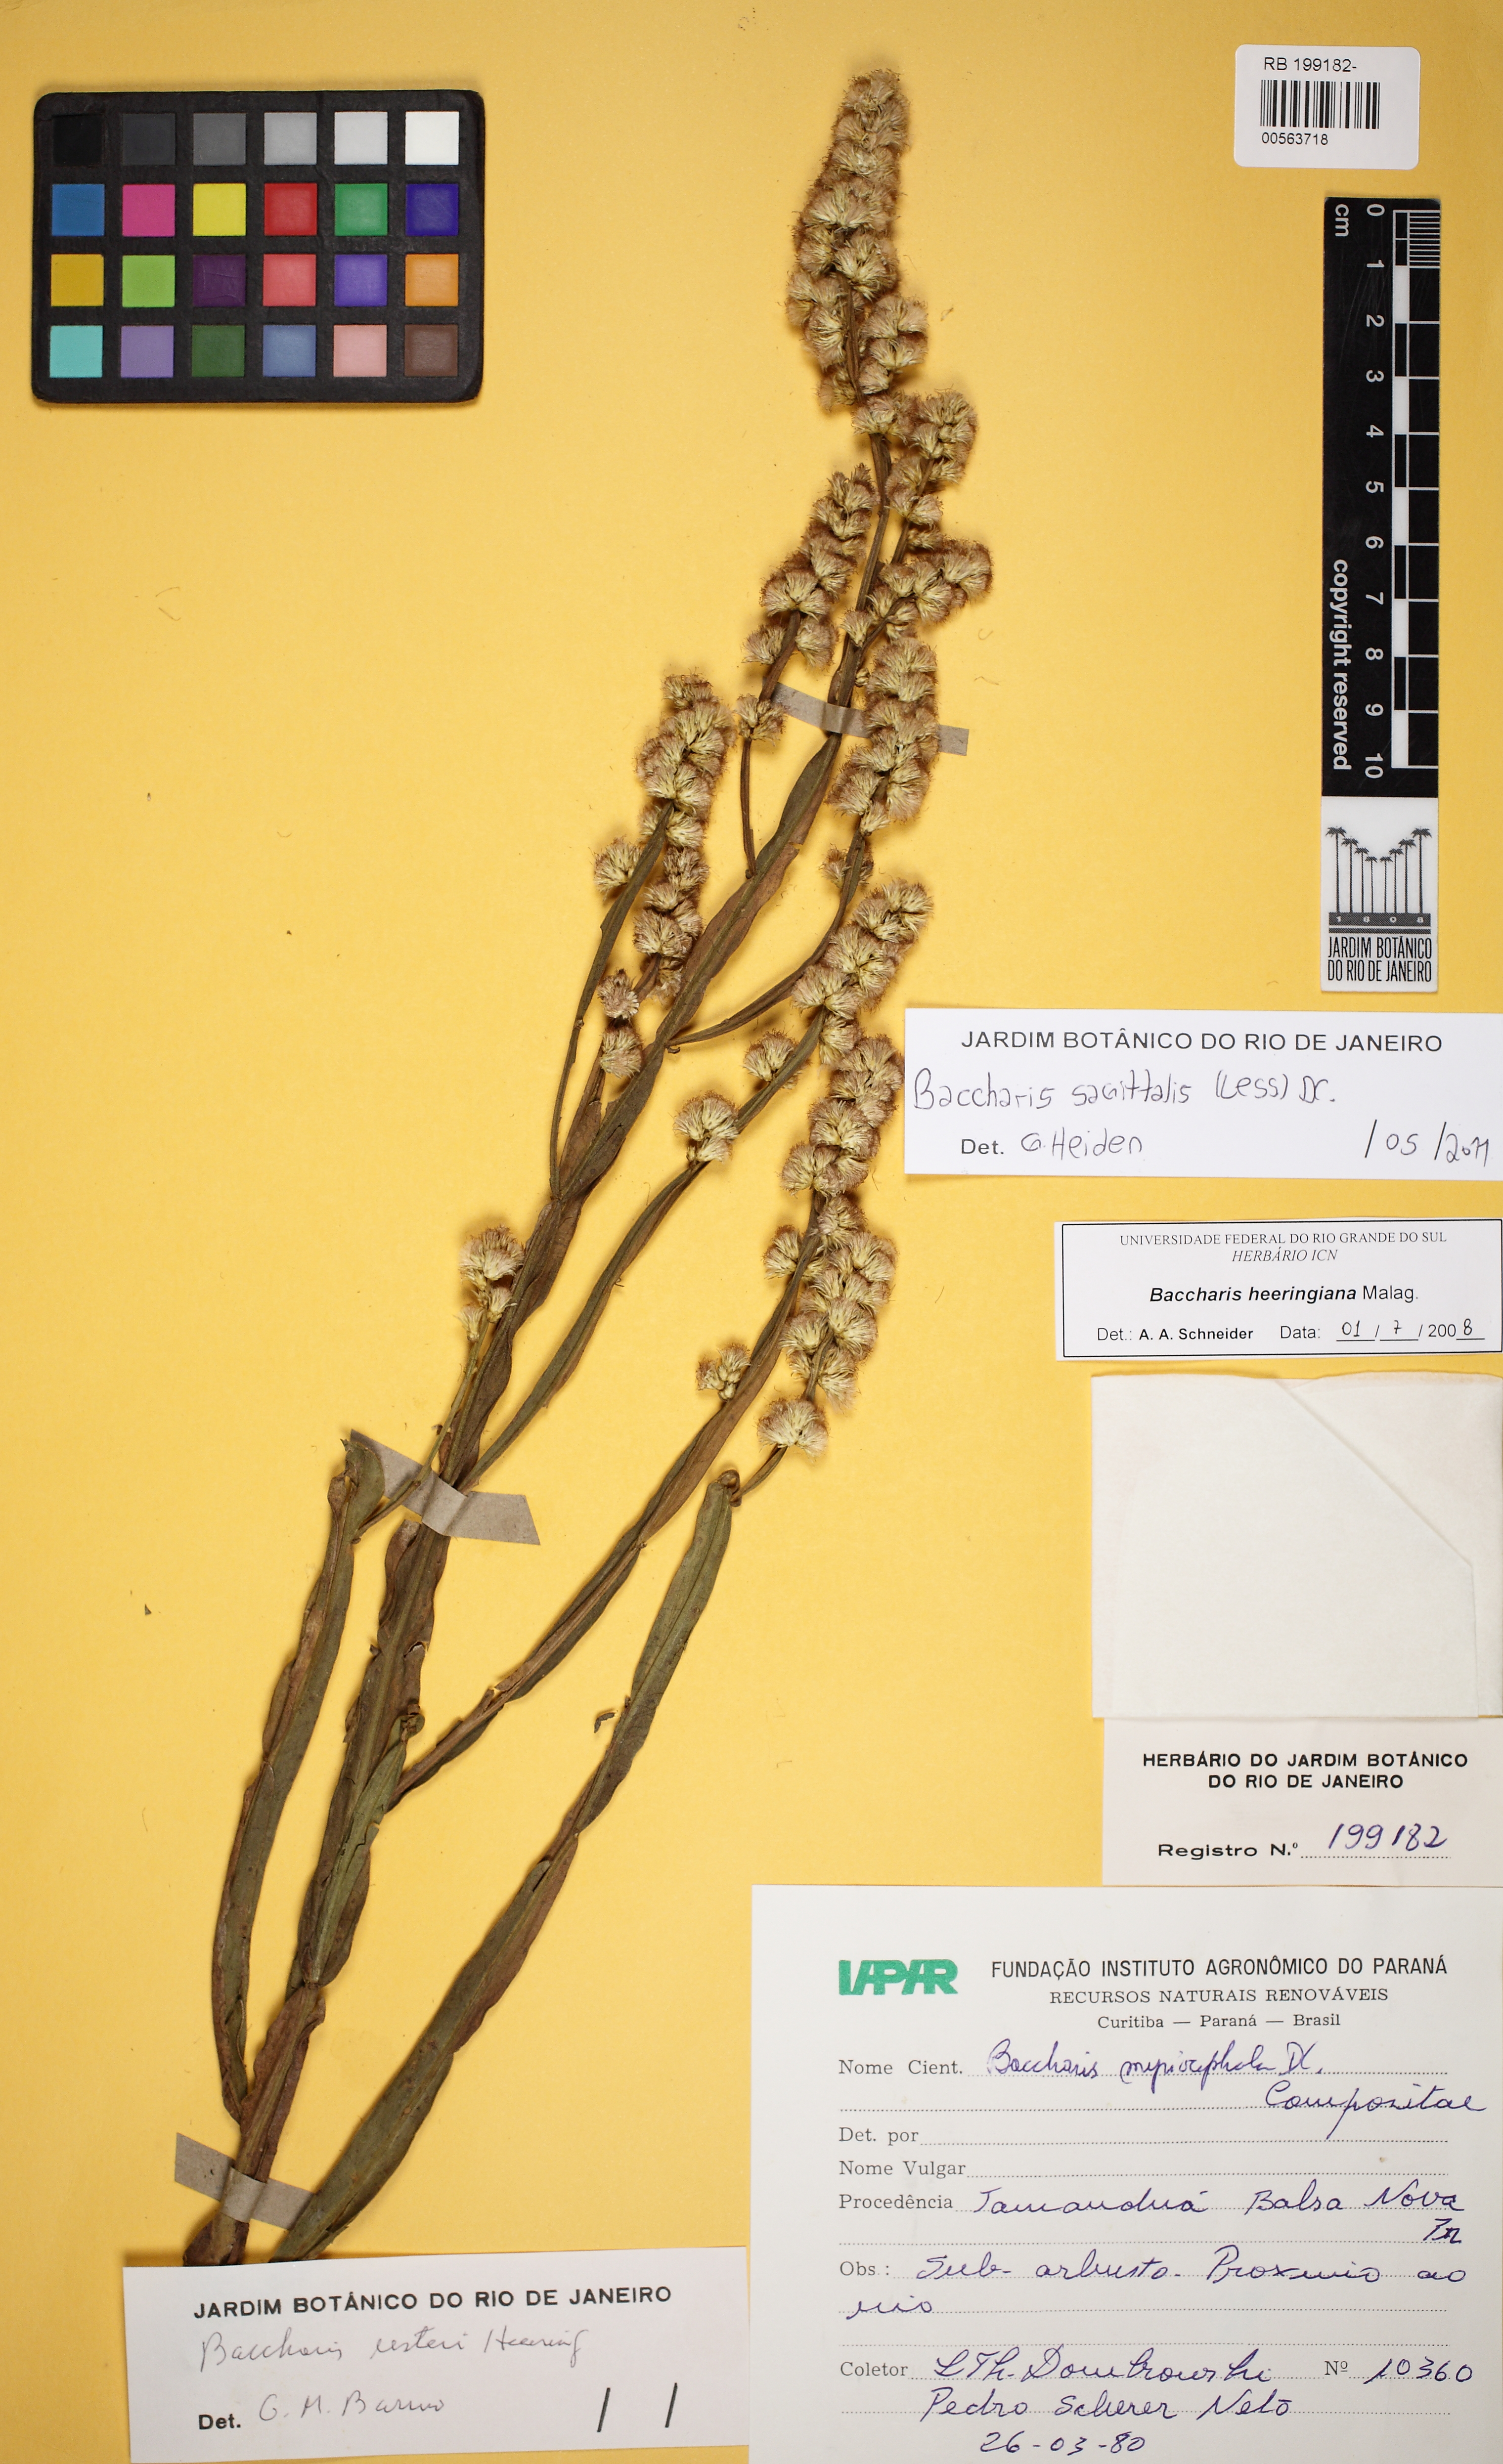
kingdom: Plantae
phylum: Tracheophyta
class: Magnoliopsida
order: Asterales
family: Asteraceae
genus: Baccharis
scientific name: Baccharis sagittalis
